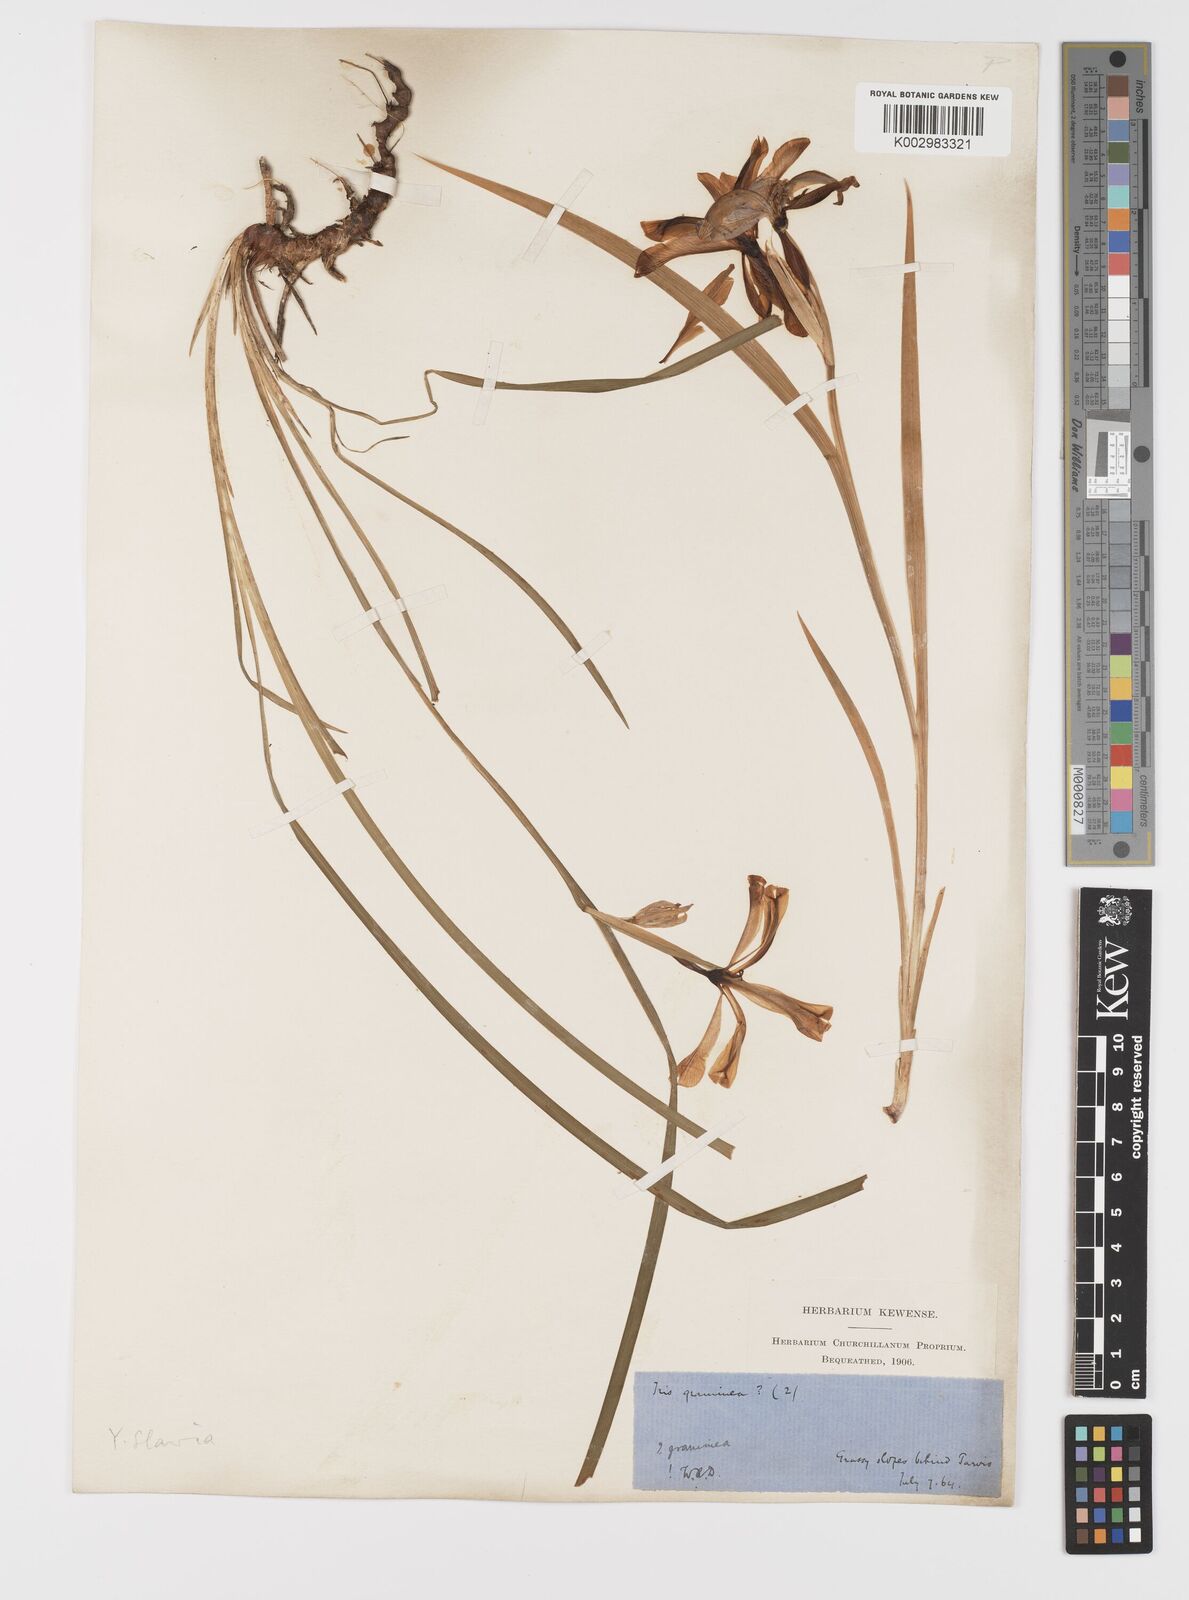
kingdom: Plantae
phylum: Tracheophyta
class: Liliopsida
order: Asparagales
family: Iridaceae
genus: Iris
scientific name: Iris graminea
